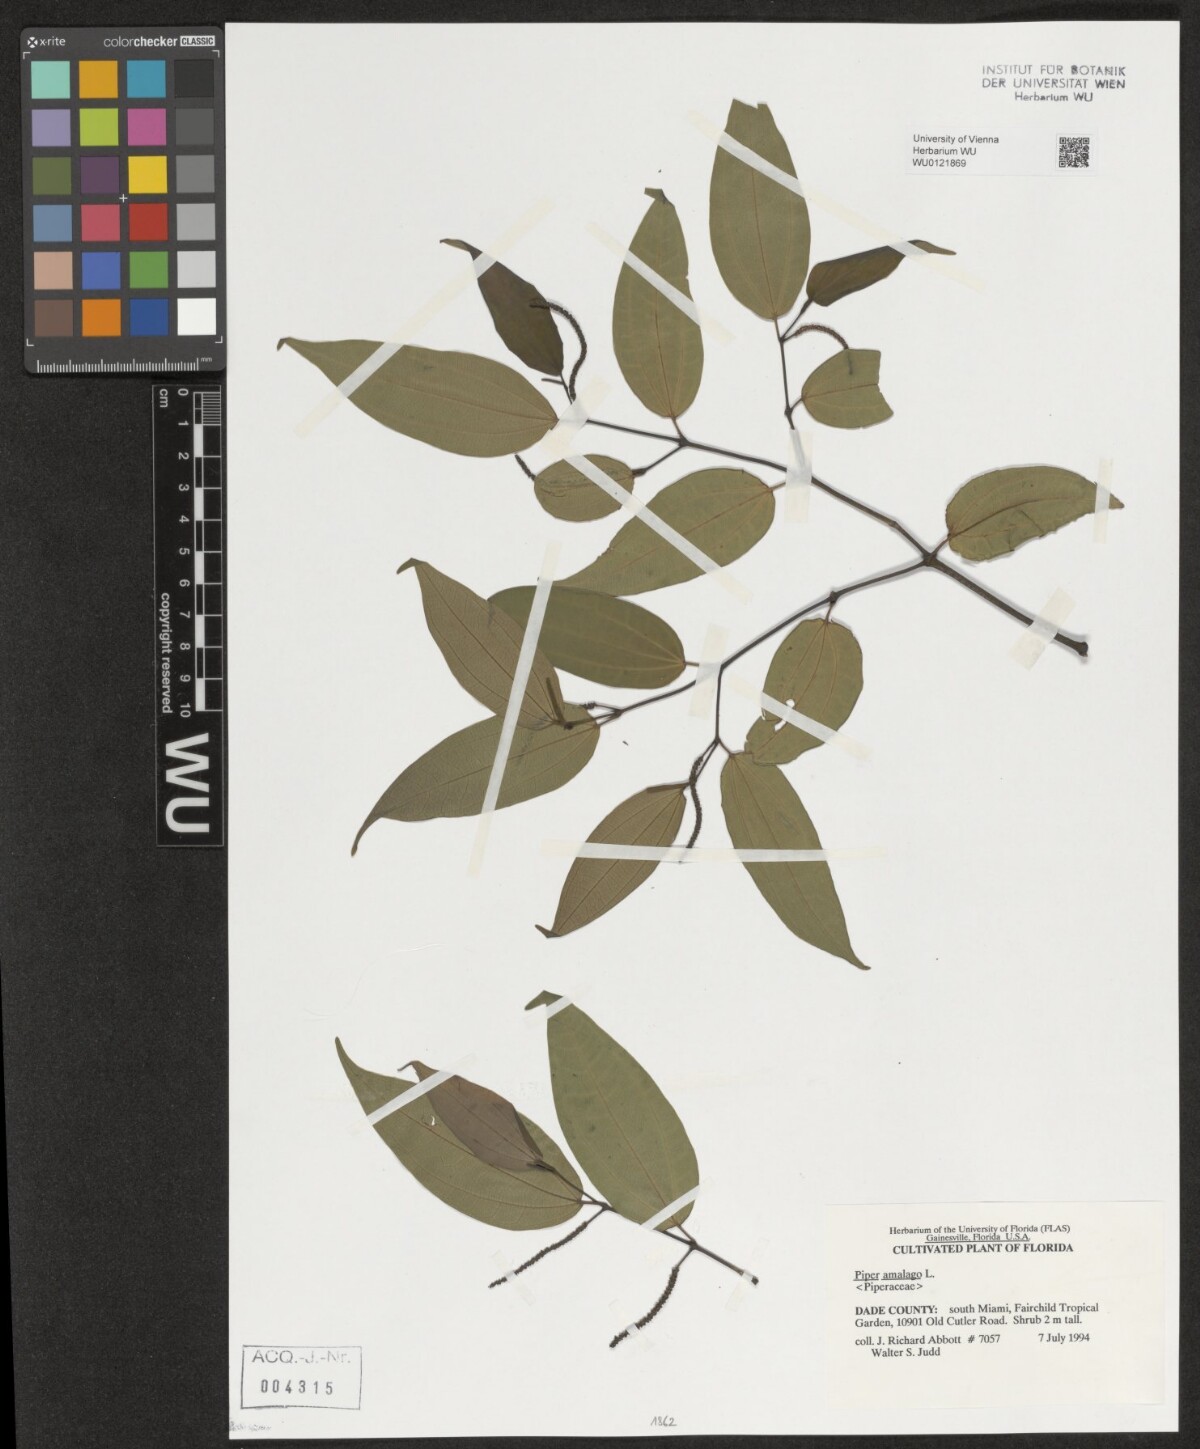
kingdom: Plantae
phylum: Tracheophyta
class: Magnoliopsida
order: Piperales
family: Piperaceae
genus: Piper
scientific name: Piper amalago
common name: Pepper-elder
